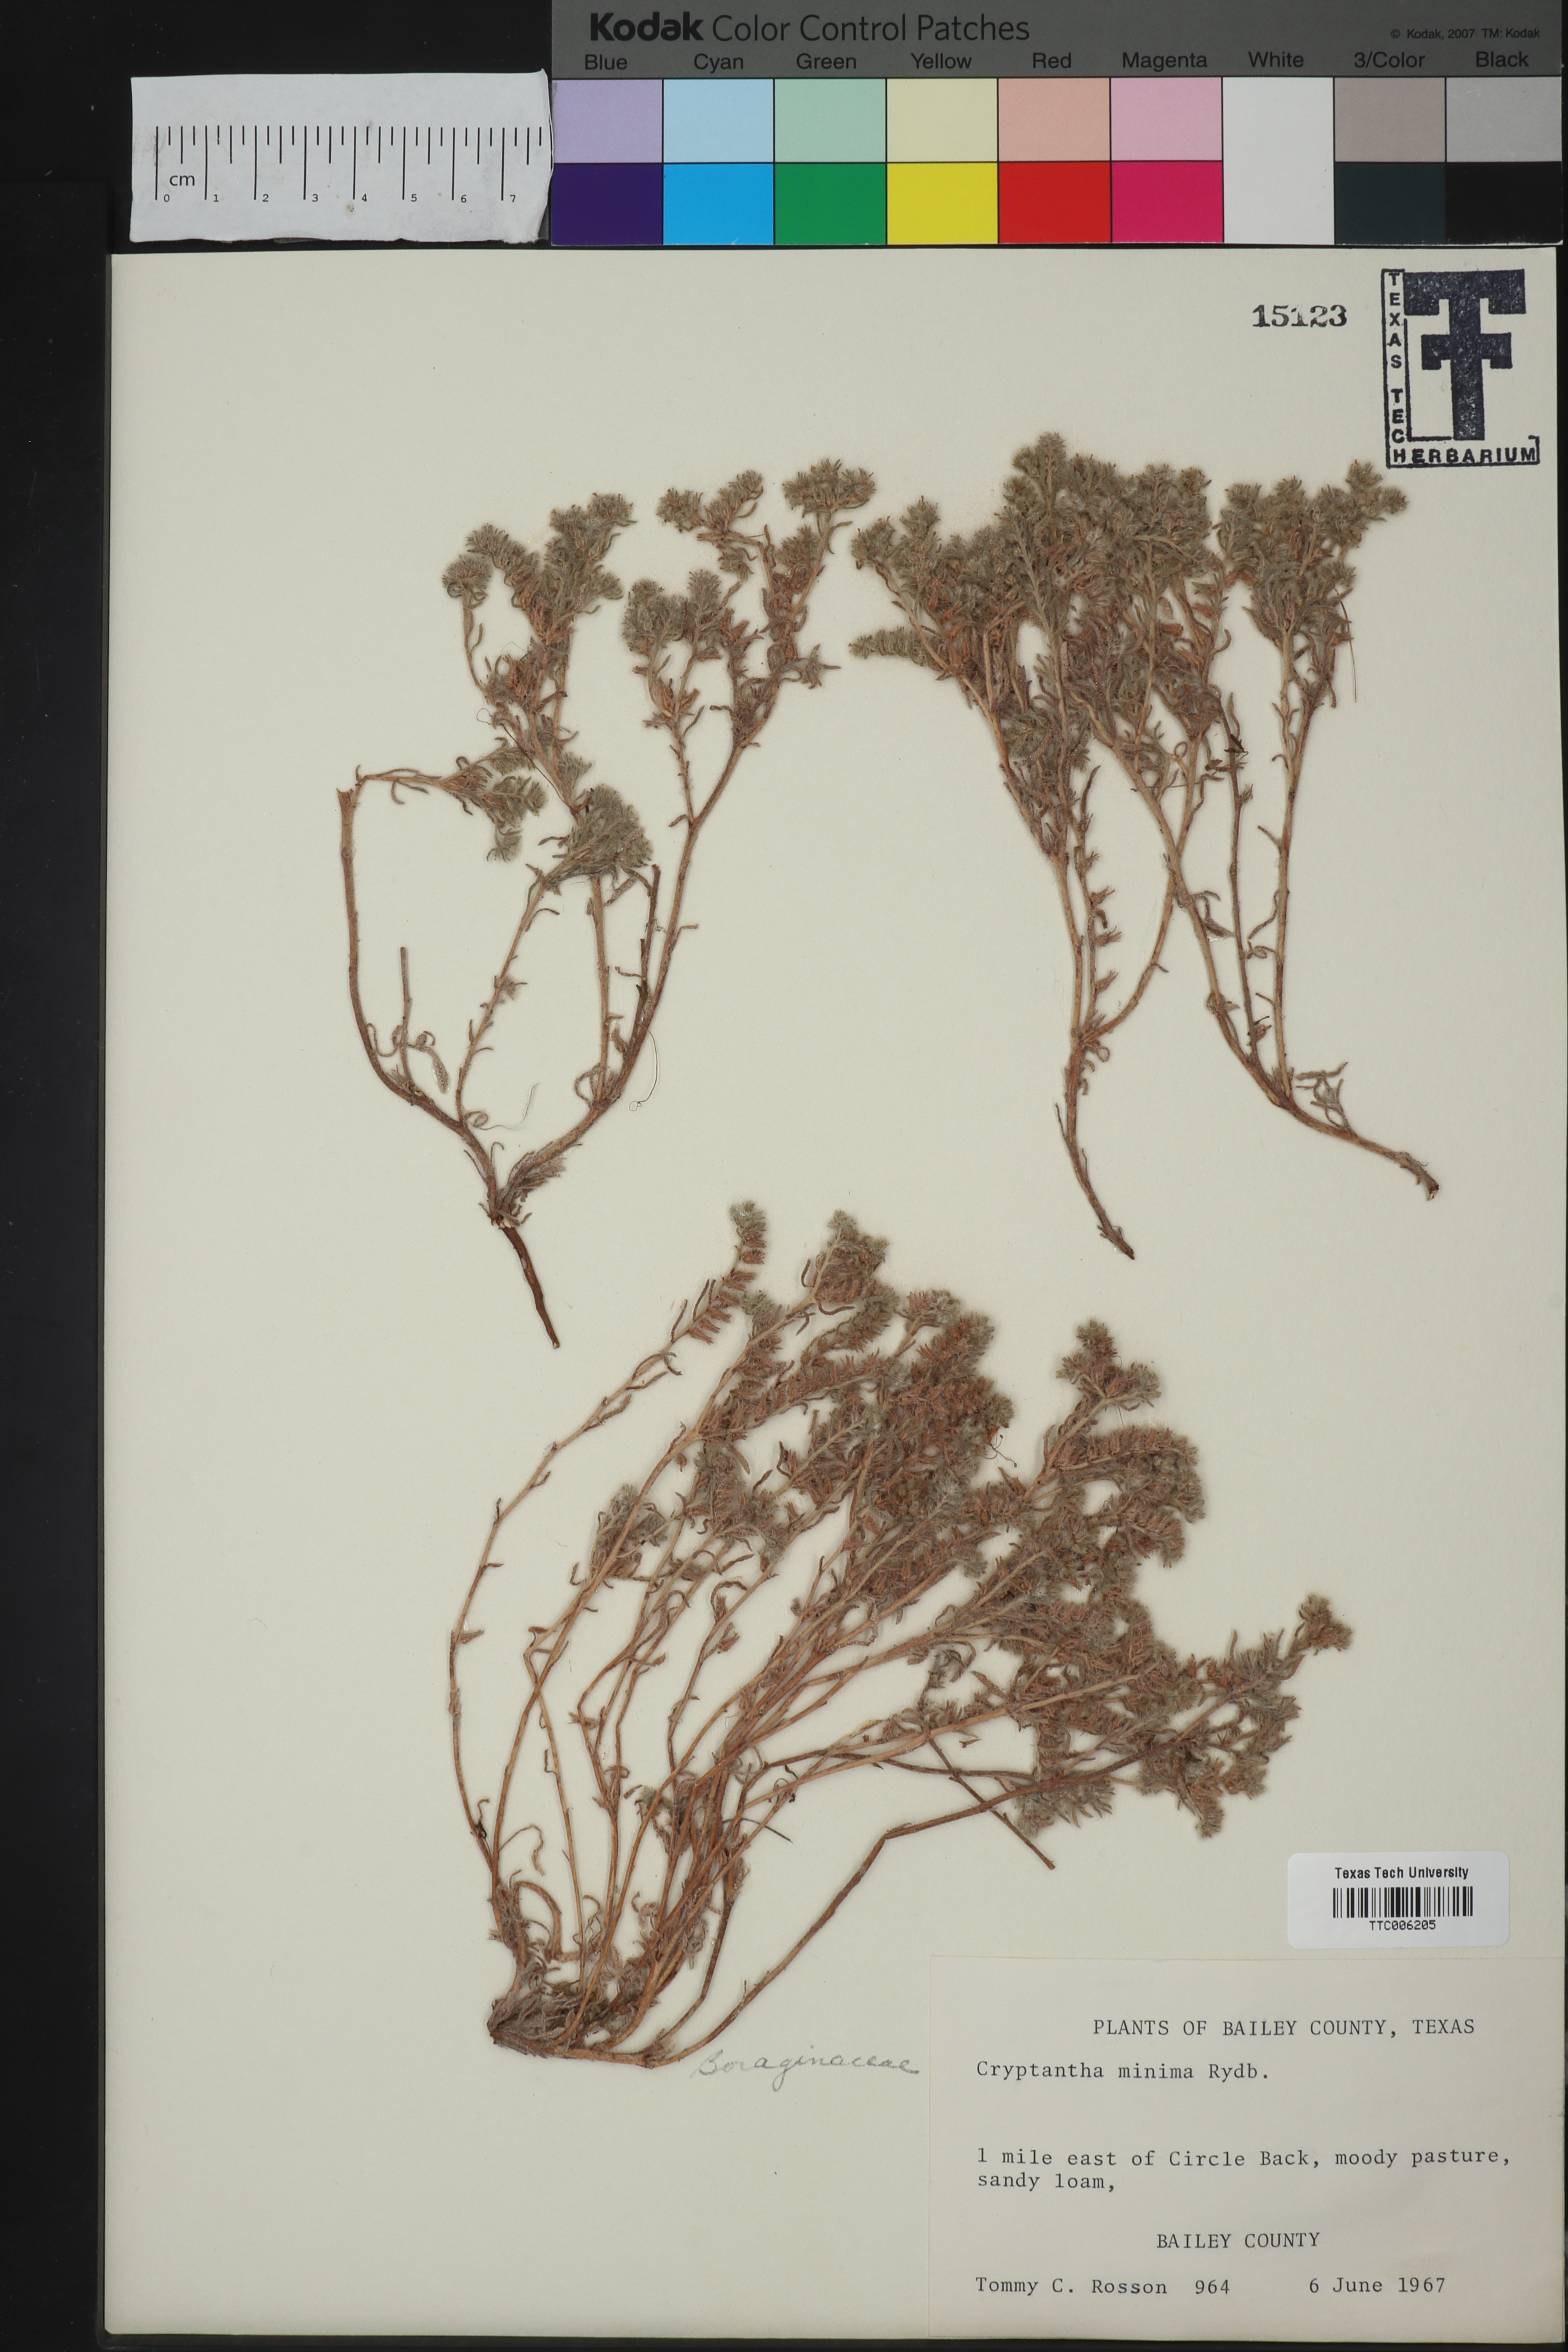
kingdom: Plantae
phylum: Tracheophyta
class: Magnoliopsida
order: Boraginales
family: Boraginaceae
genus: Cryptantha
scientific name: Cryptantha minima
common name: Little cat's-eye
